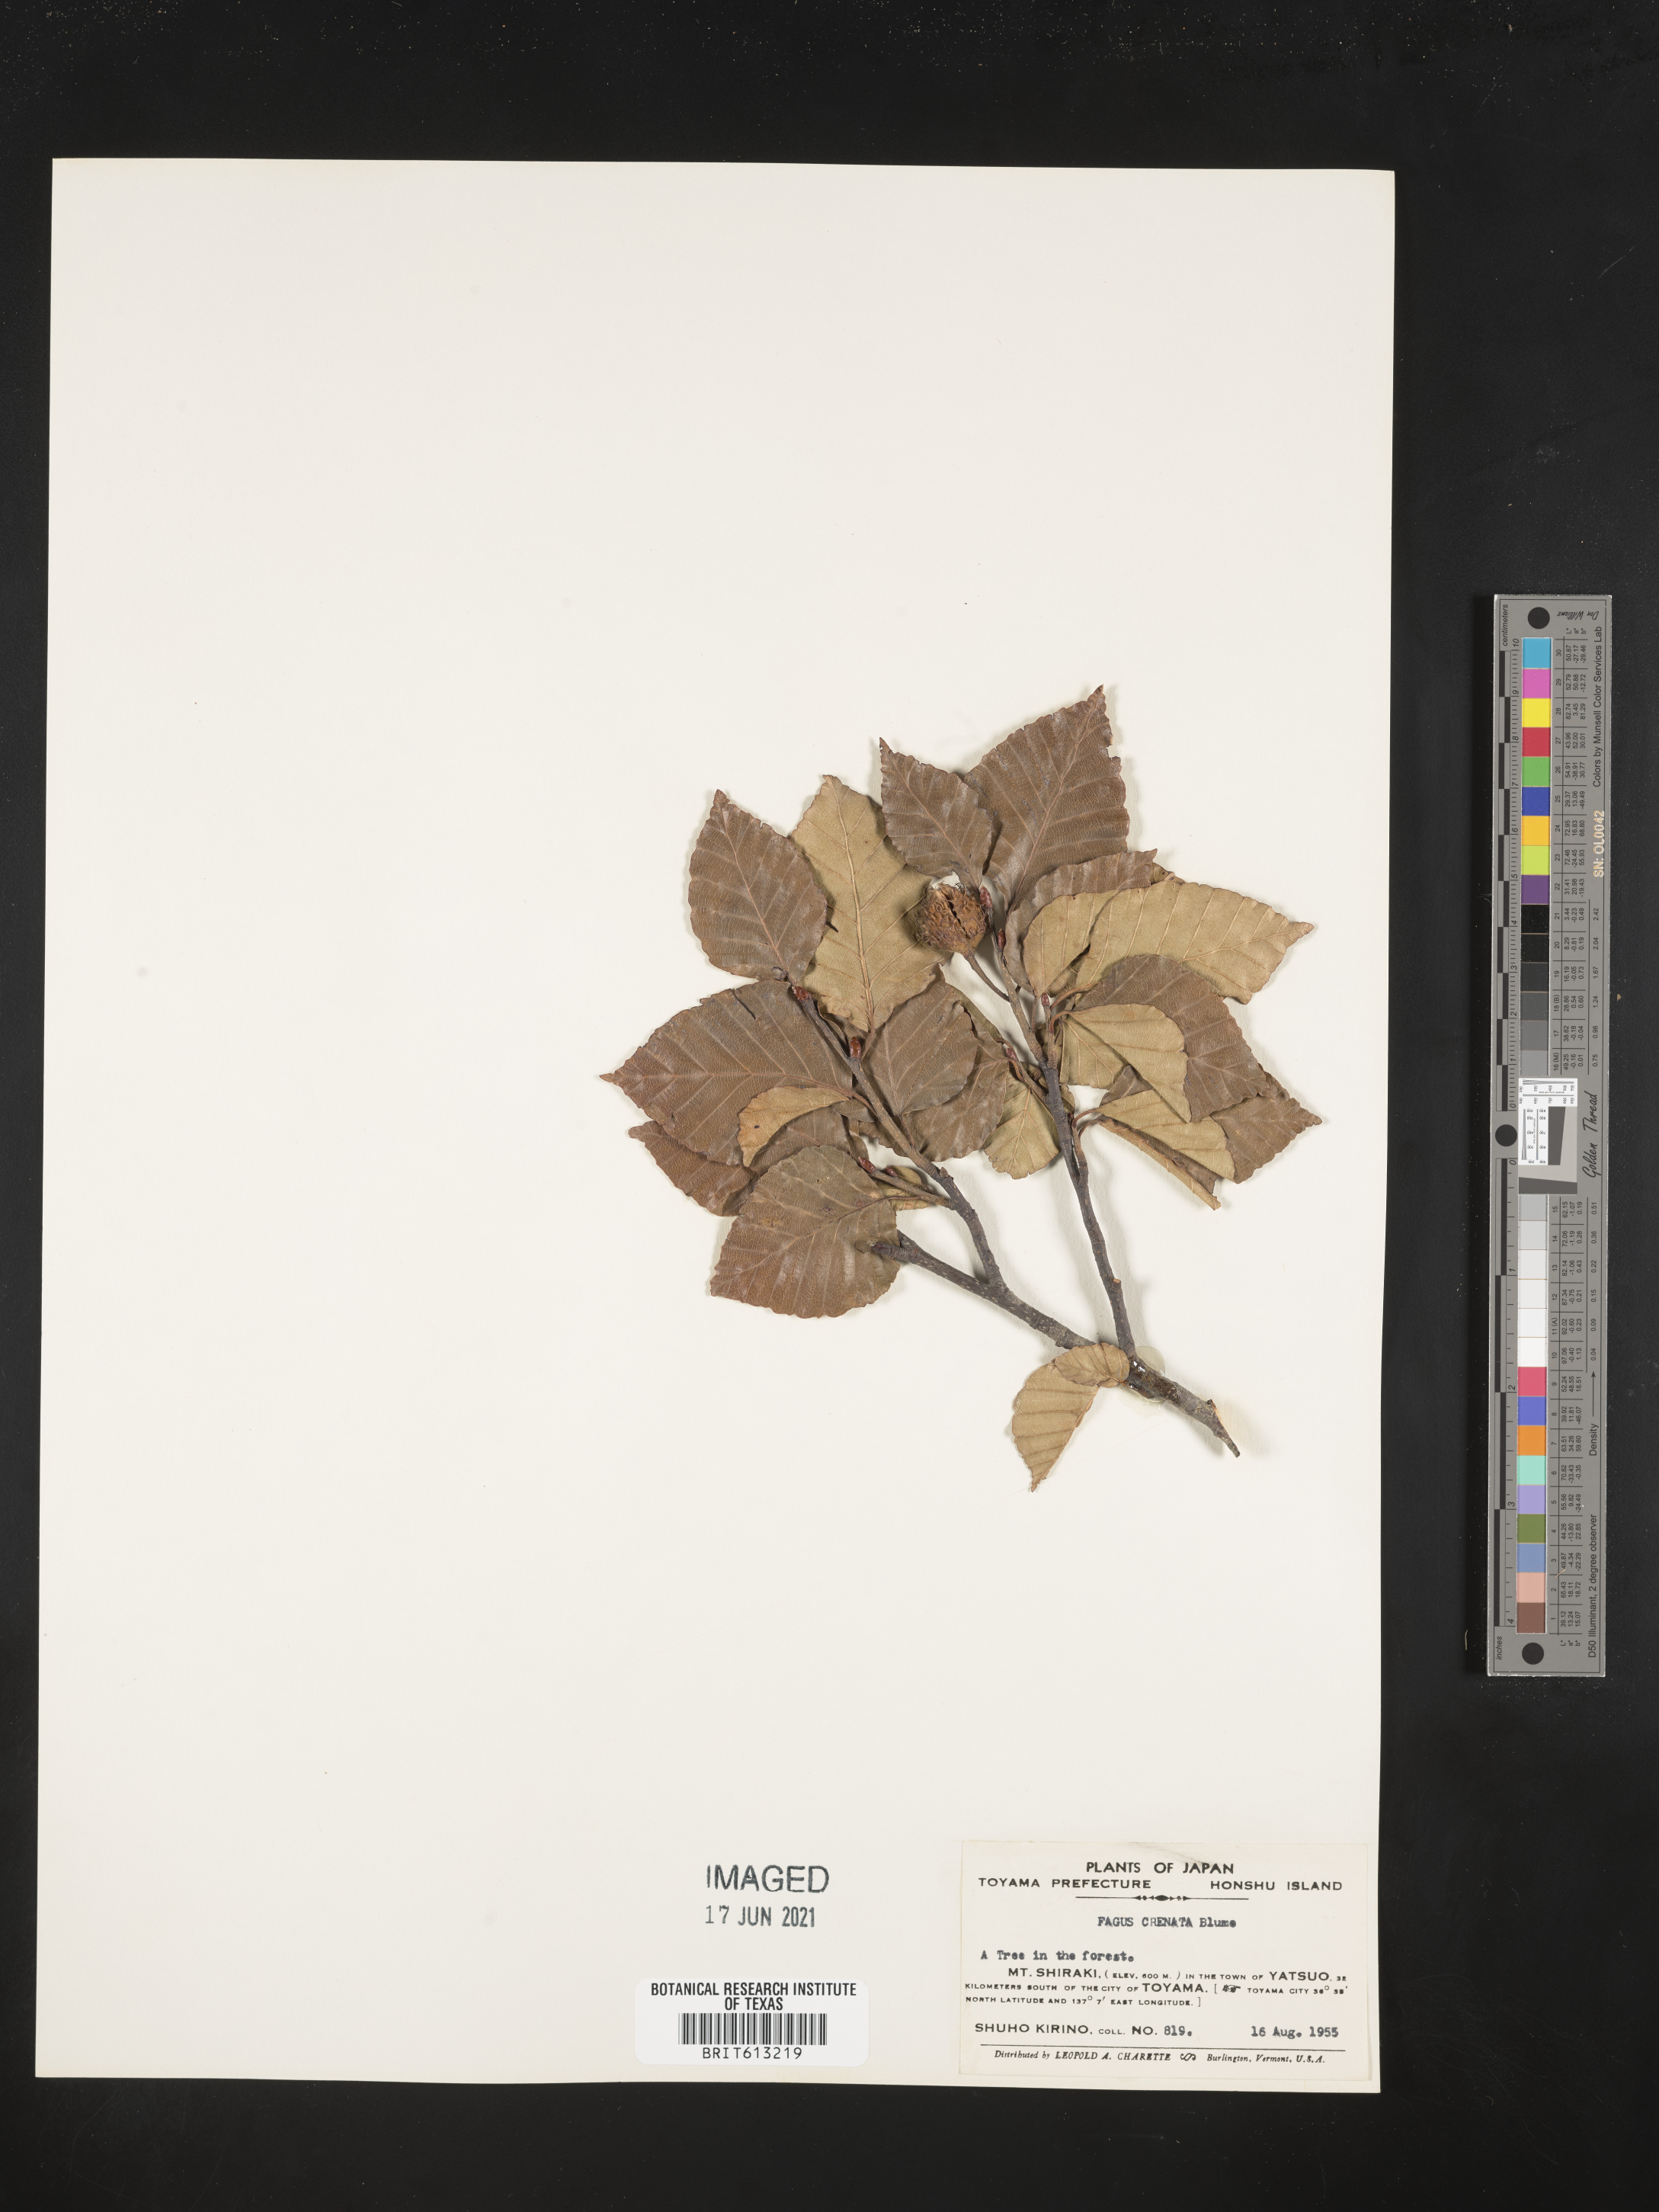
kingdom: Plantae
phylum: Tracheophyta
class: Magnoliopsida
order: Fagales
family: Fagaceae
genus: Fagus
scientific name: Fagus crenata
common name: Japanese beech
